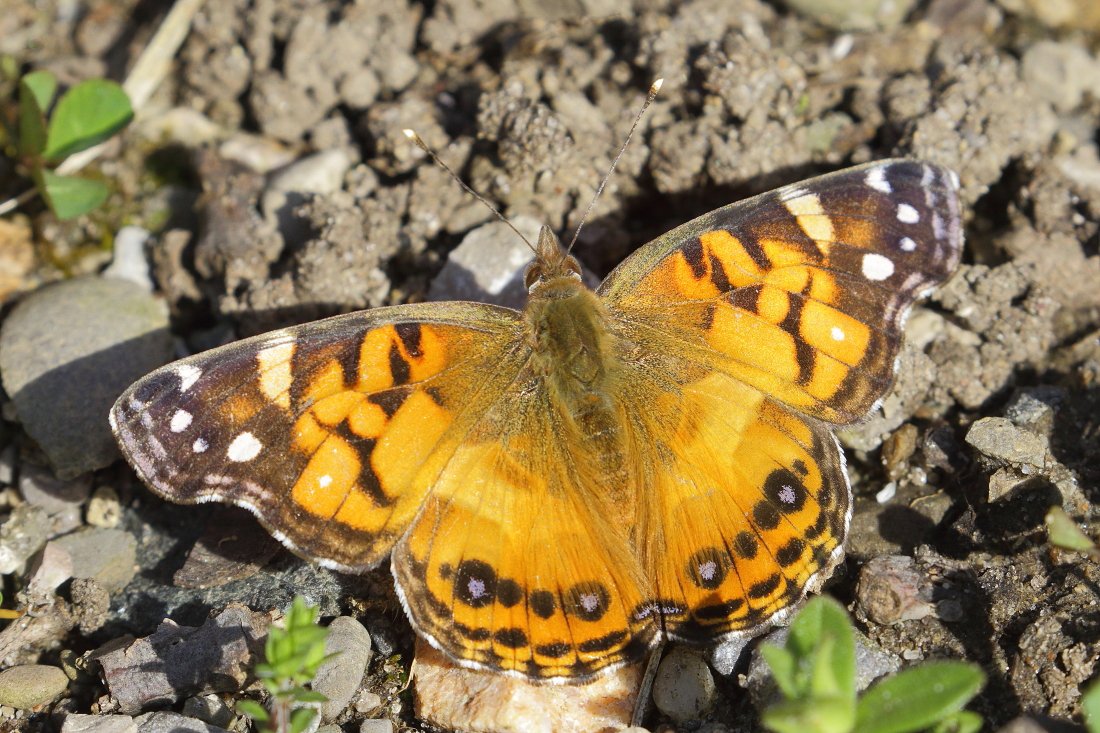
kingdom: Animalia
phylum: Arthropoda
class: Insecta
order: Lepidoptera
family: Nymphalidae
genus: Vanessa
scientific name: Vanessa virginiensis
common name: American Lady
